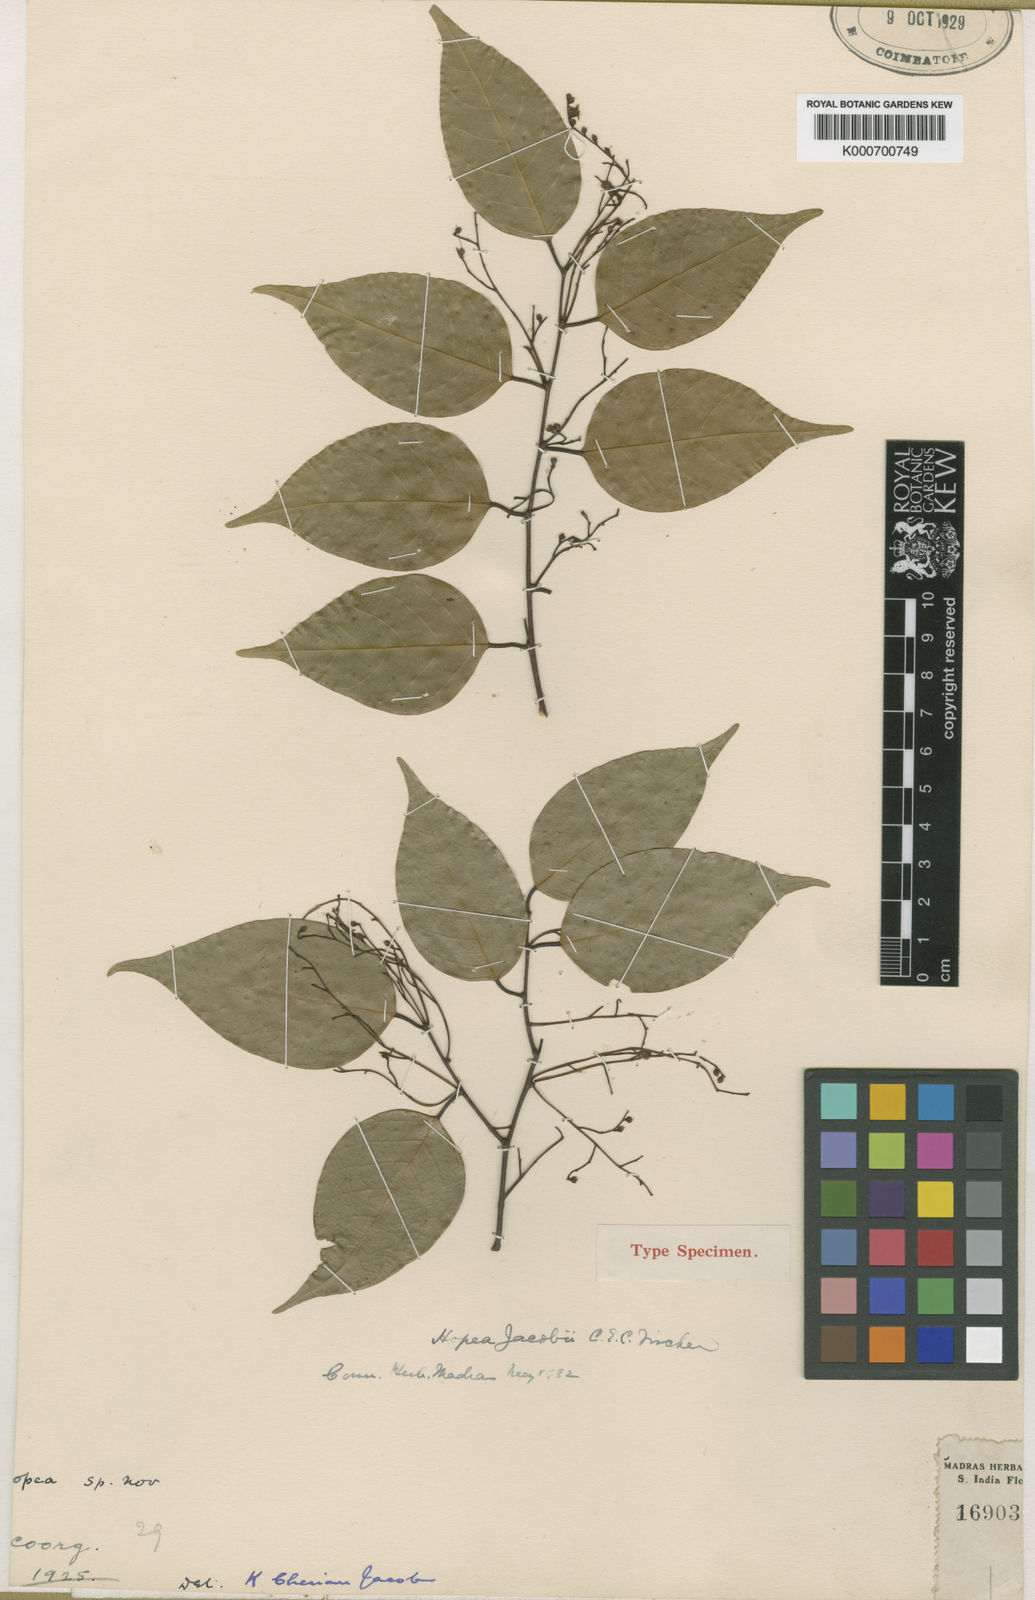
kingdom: Plantae
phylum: Tracheophyta
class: Magnoliopsida
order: Malvales
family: Dipterocarpaceae
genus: Hopea
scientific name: Hopea canarensis
